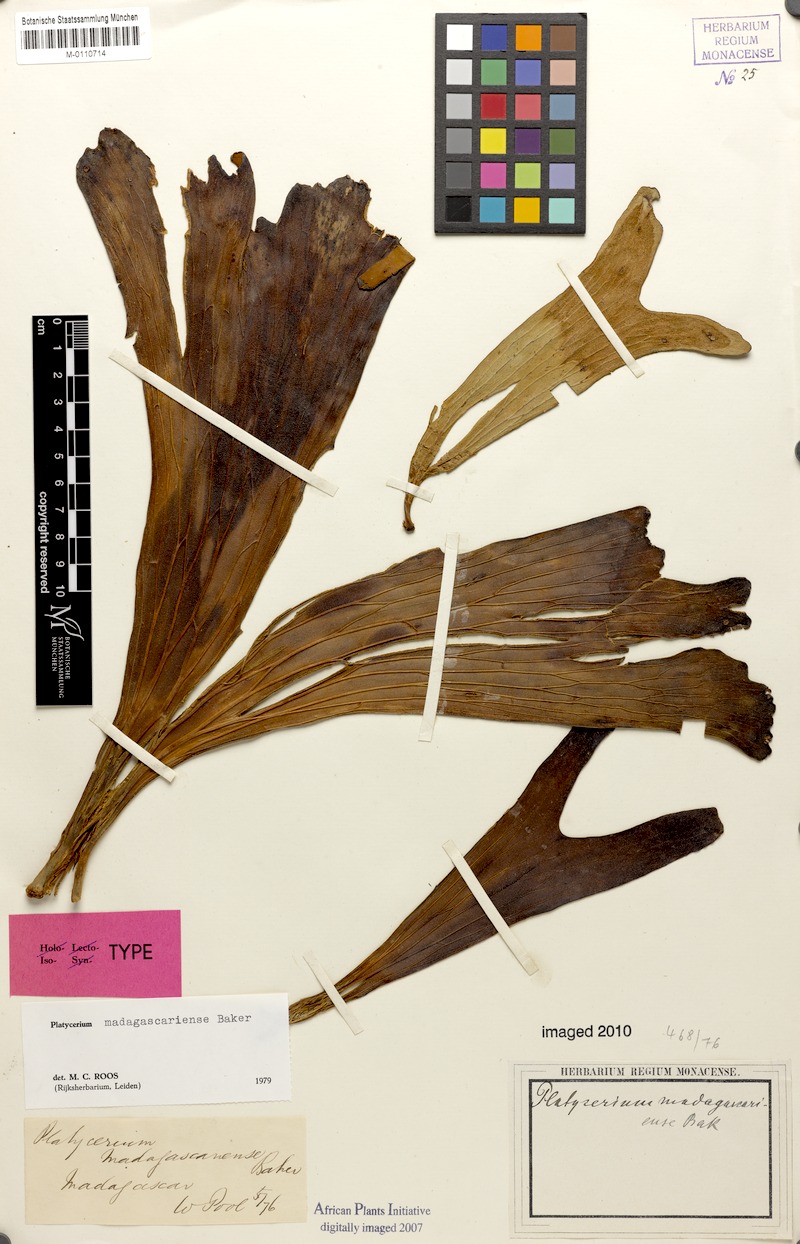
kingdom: Plantae
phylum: Tracheophyta
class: Polypodiopsida
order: Polypodiales
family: Polypodiaceae
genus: Platycerium
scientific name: Platycerium madagascariense
